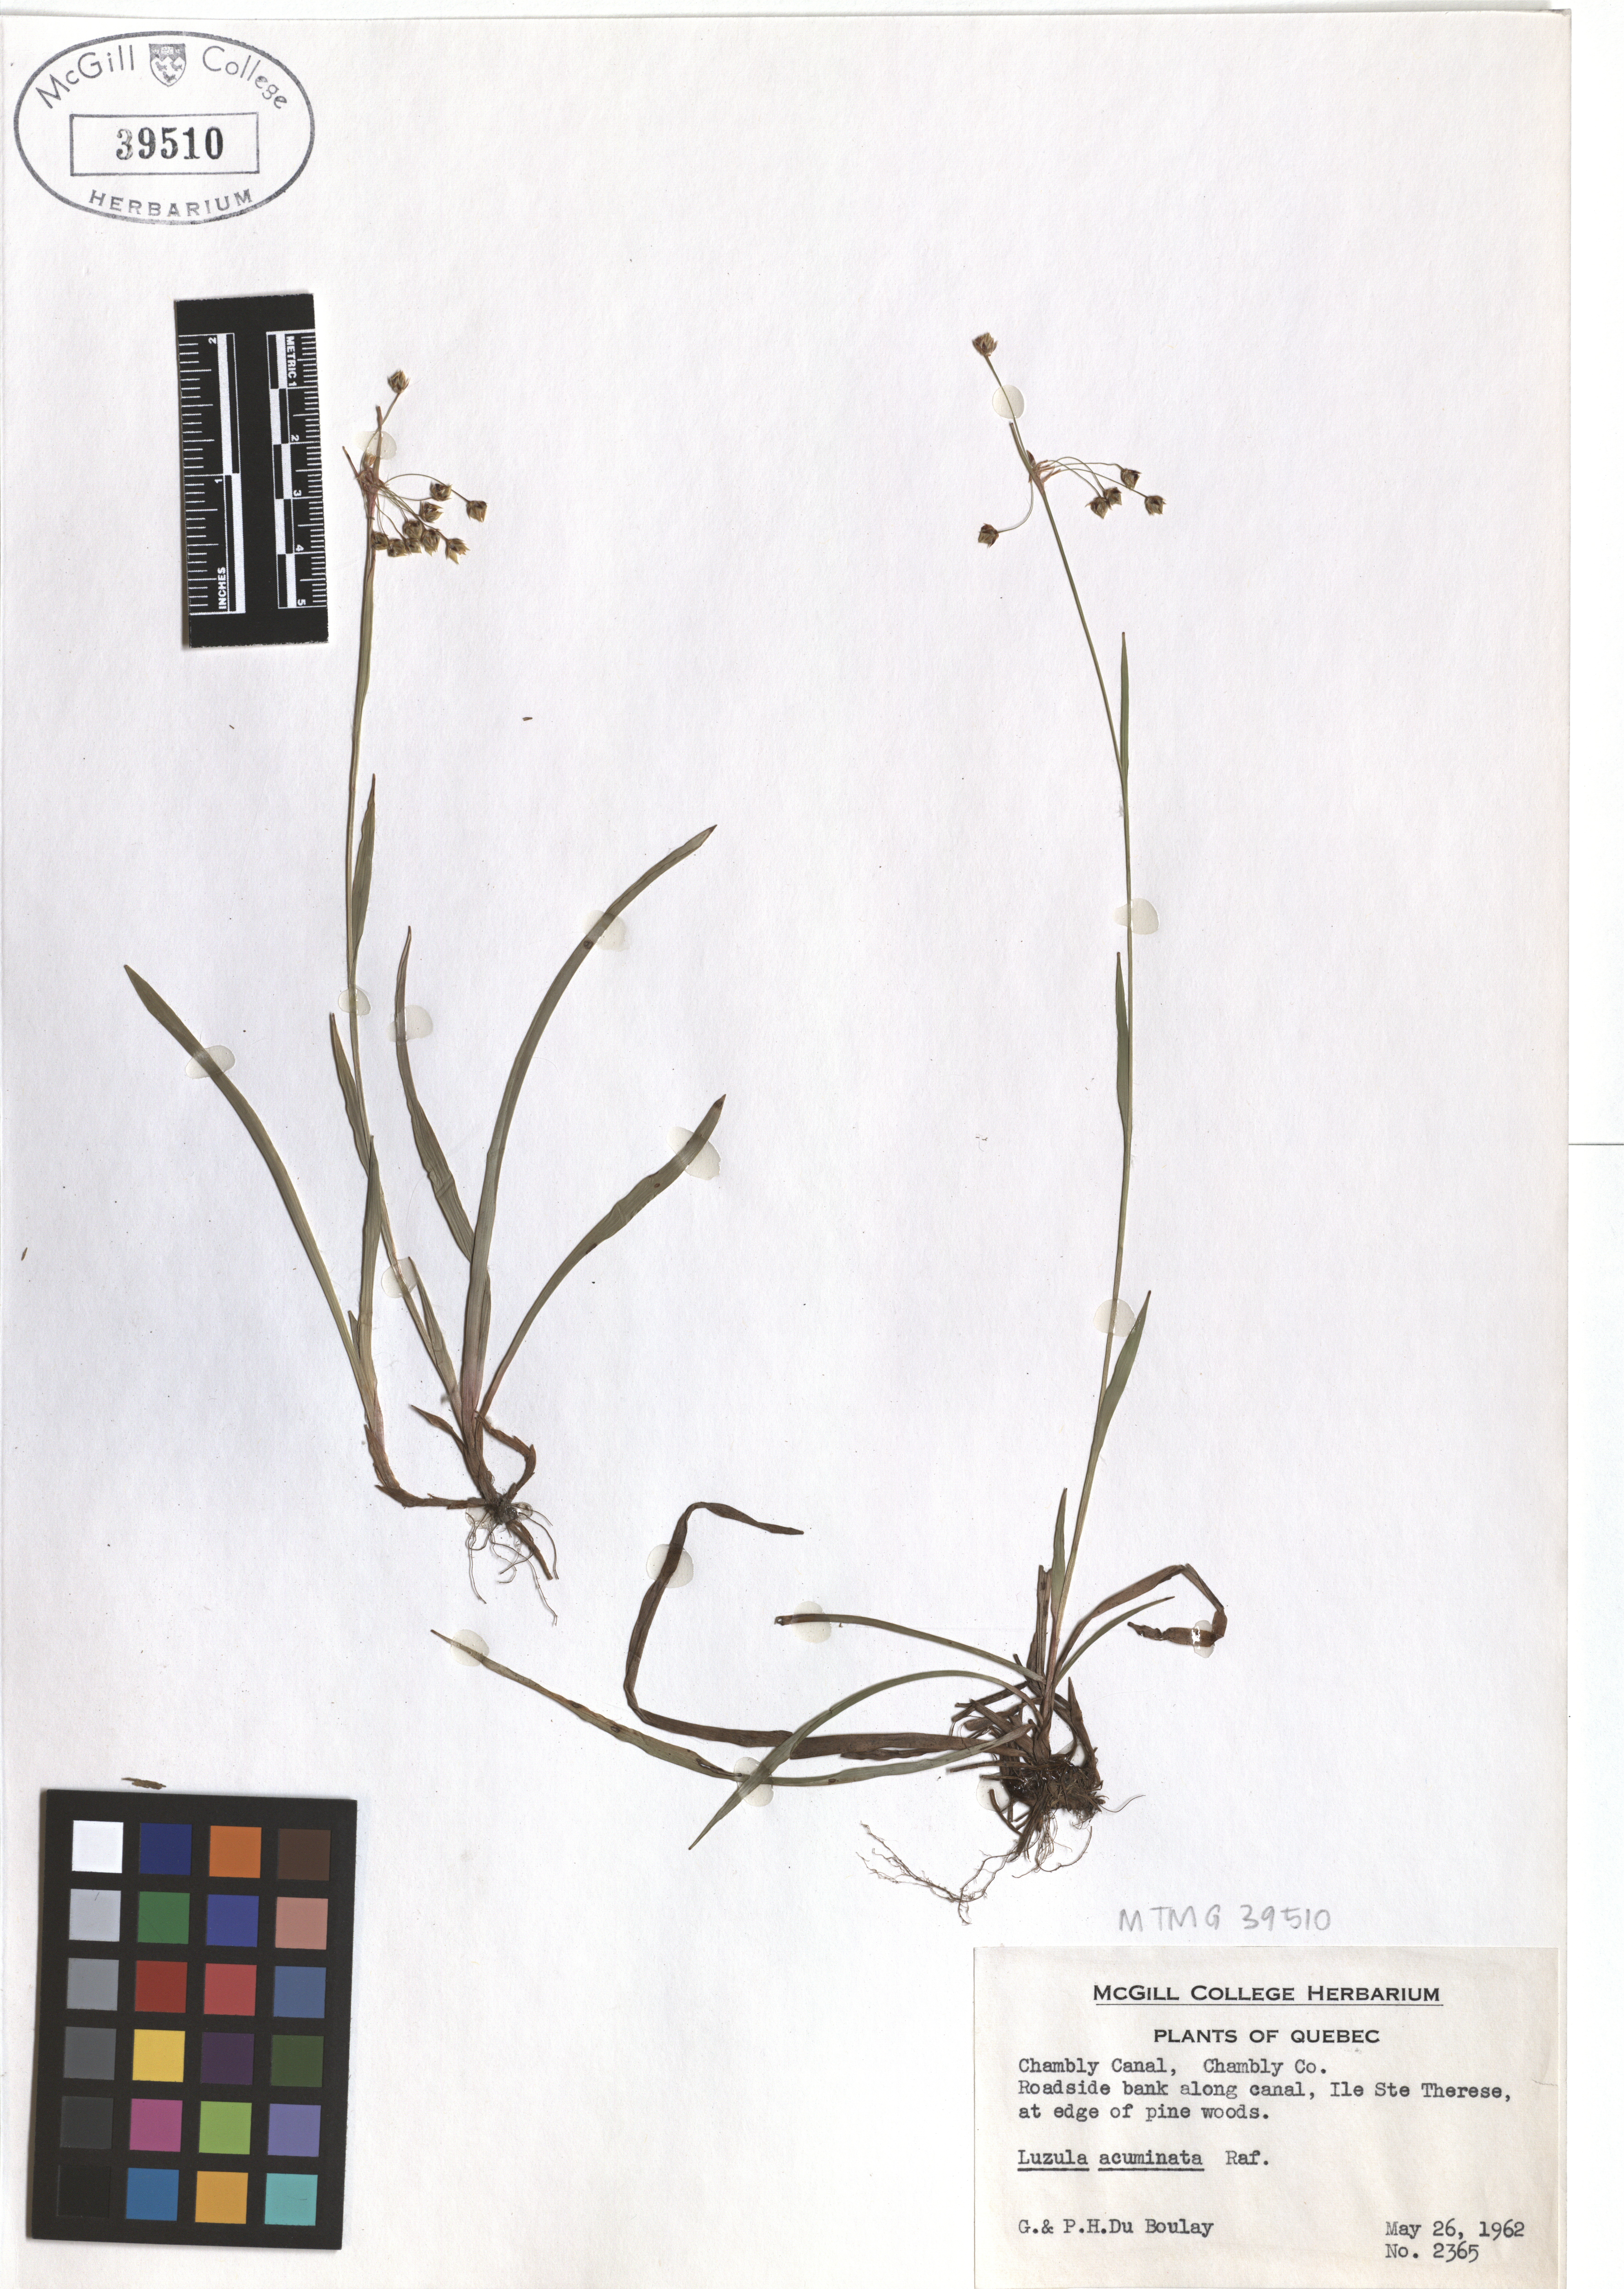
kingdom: Plantae
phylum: Tracheophyta
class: Liliopsida
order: Poales
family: Juncaceae
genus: Luzula
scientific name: Luzula acuminata
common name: Hairy woodrush
